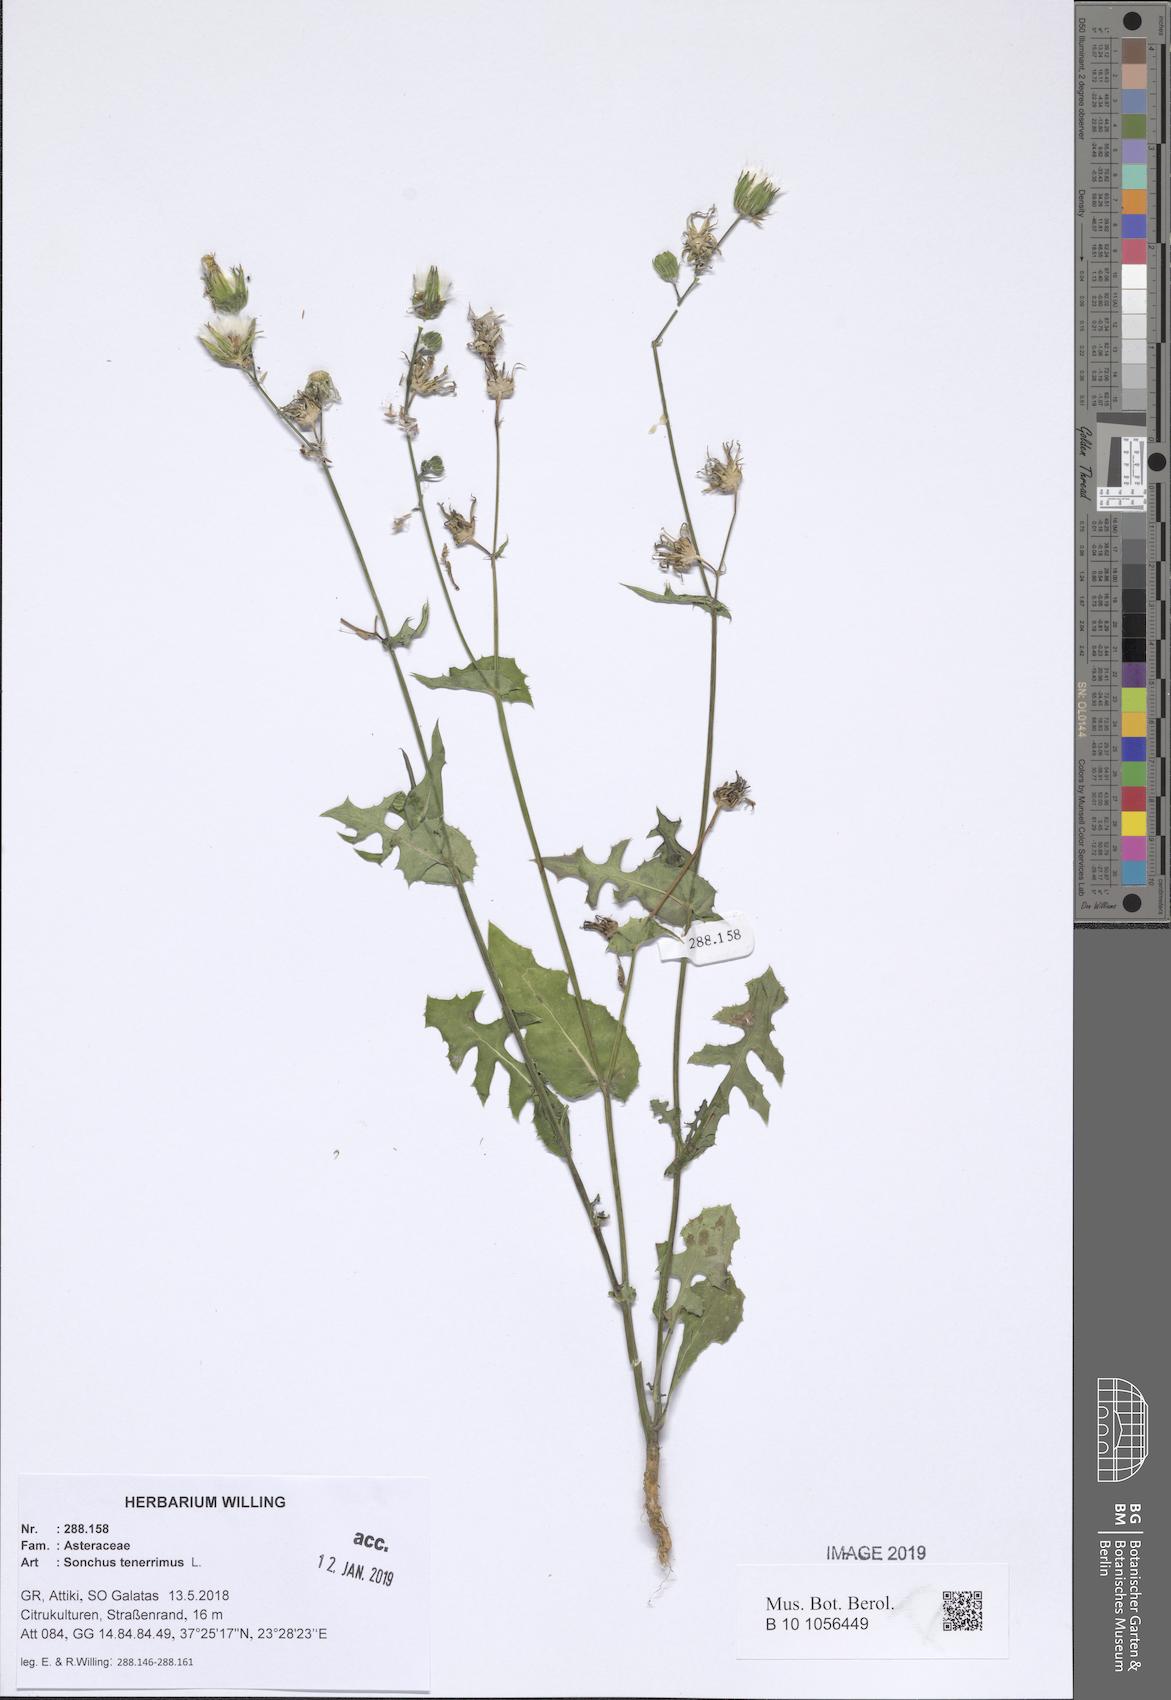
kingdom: Plantae
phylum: Tracheophyta
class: Magnoliopsida
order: Asterales
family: Asteraceae
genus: Sonchus
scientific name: Sonchus tenerrimus
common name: Clammy sowthistle
